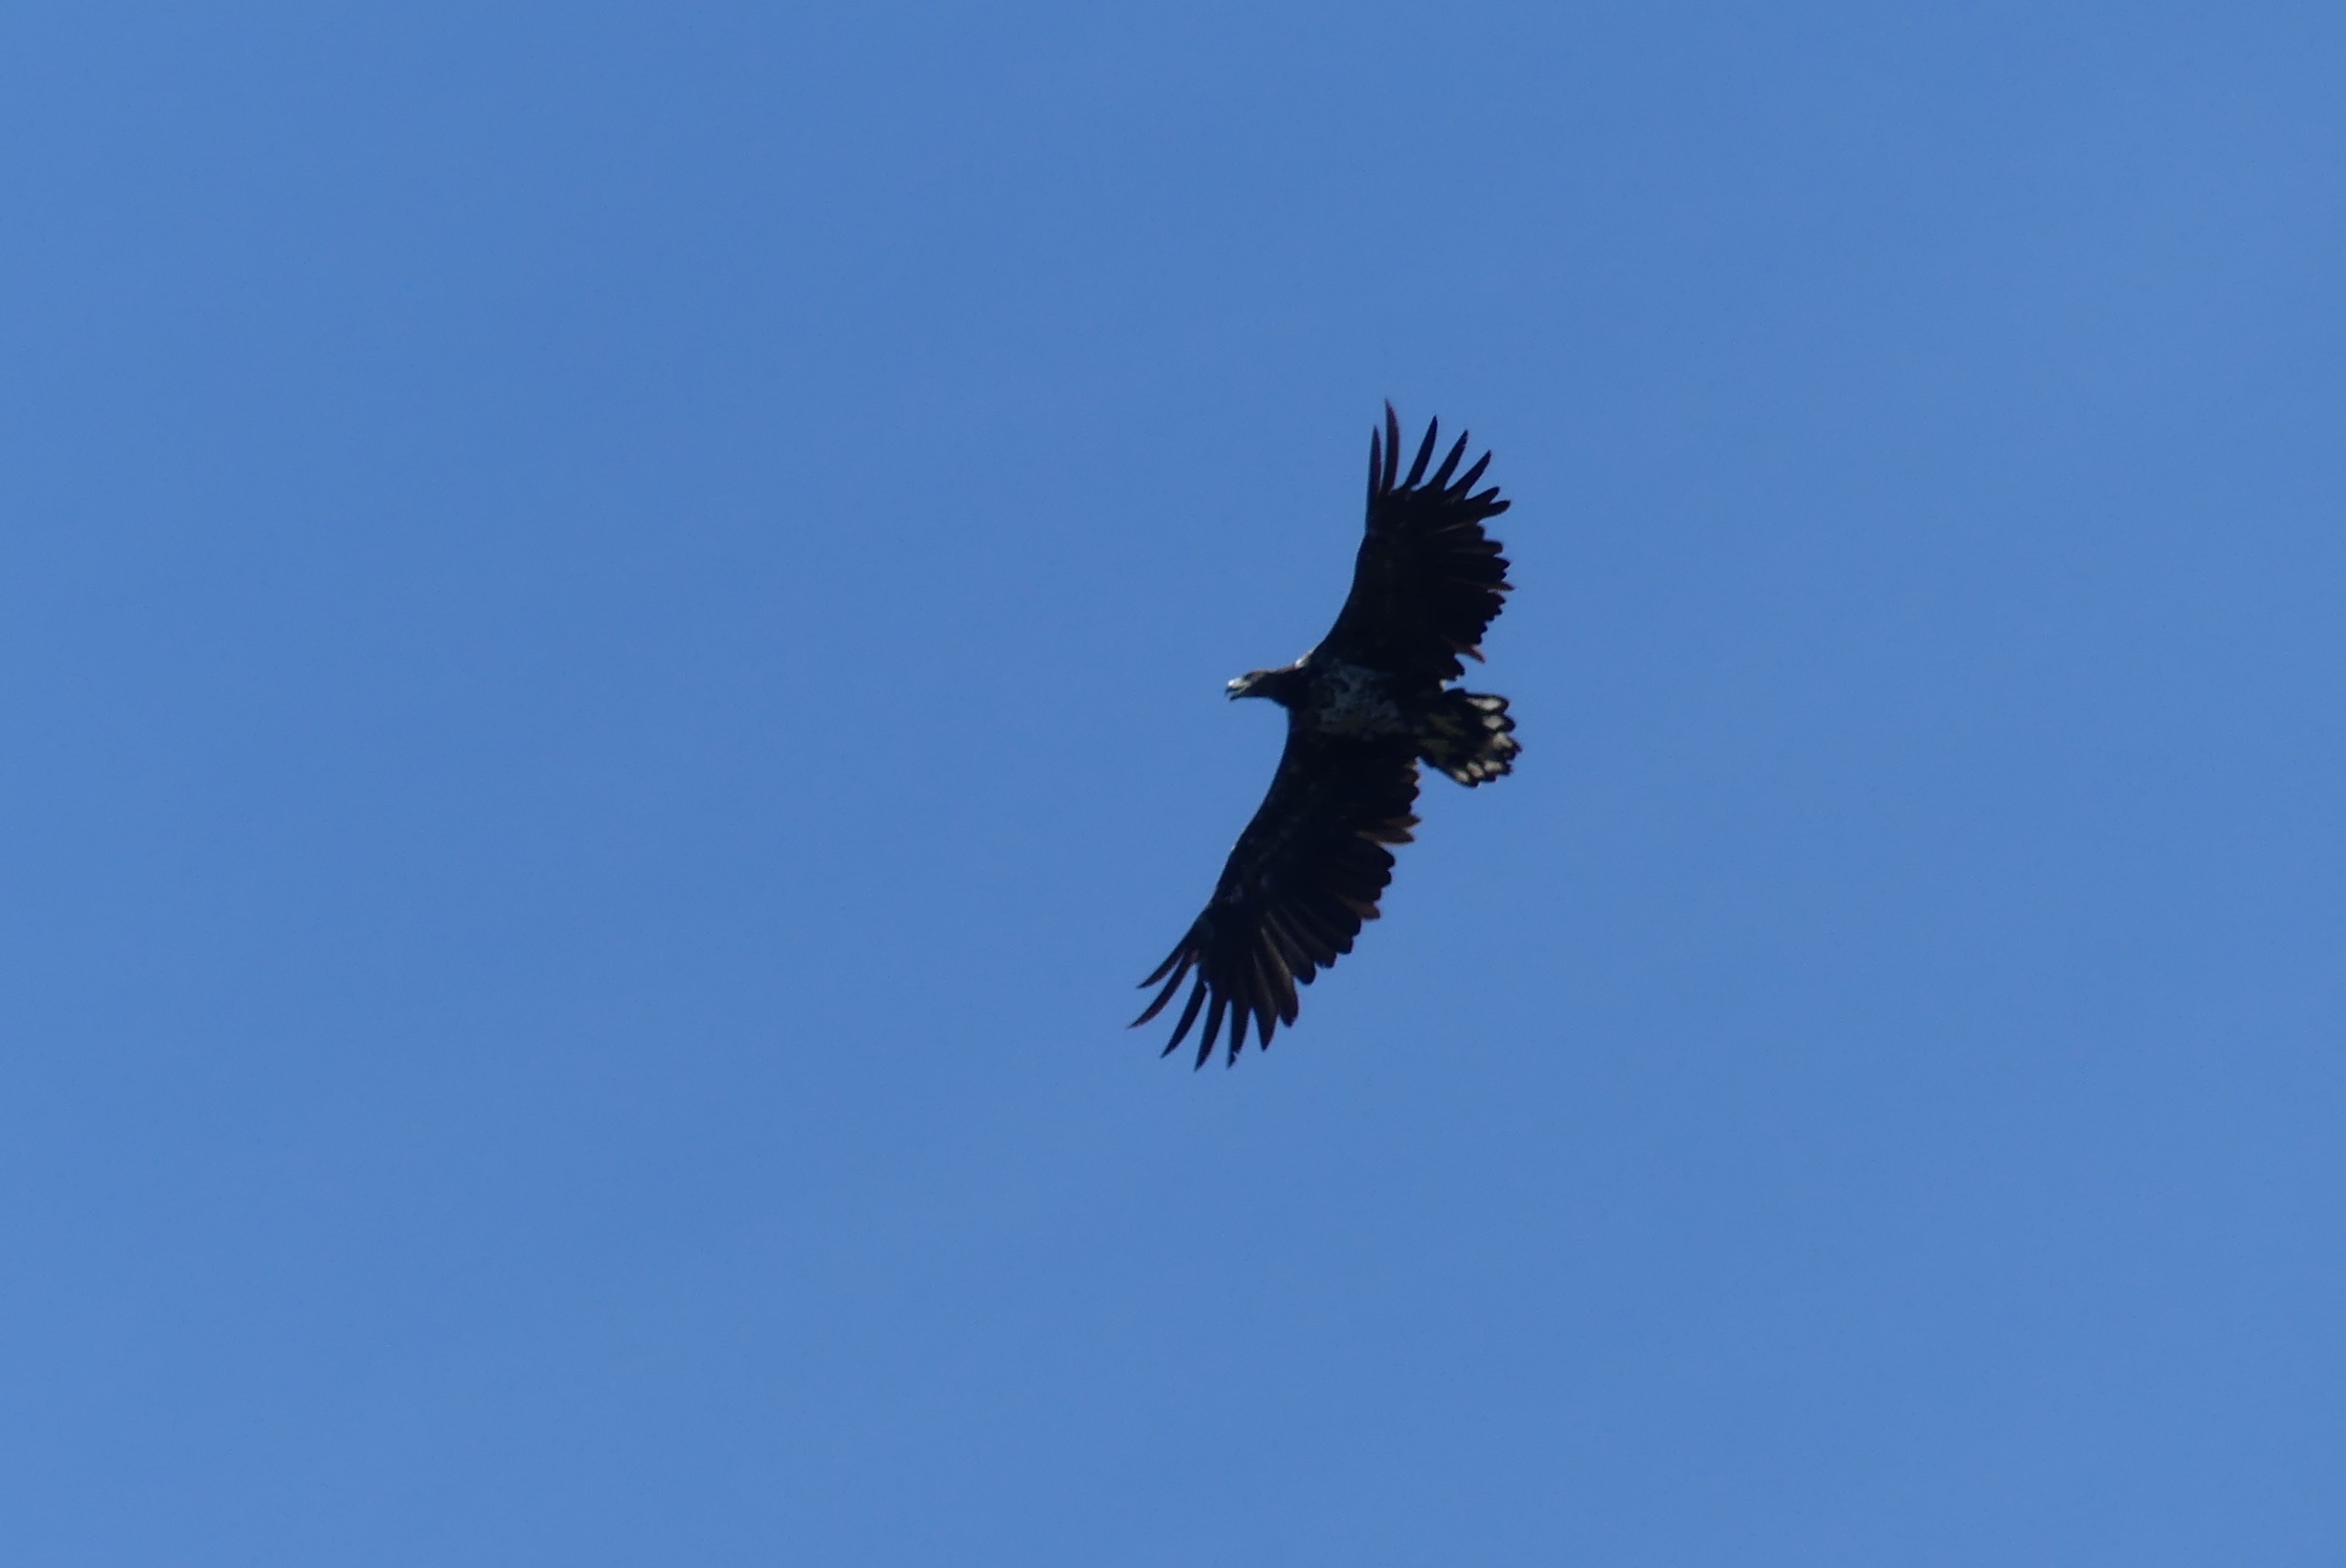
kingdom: Animalia
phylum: Chordata
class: Aves
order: Accipitriformes
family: Accipitridae
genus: Haliaeetus
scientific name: Haliaeetus albicilla
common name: Havørn
